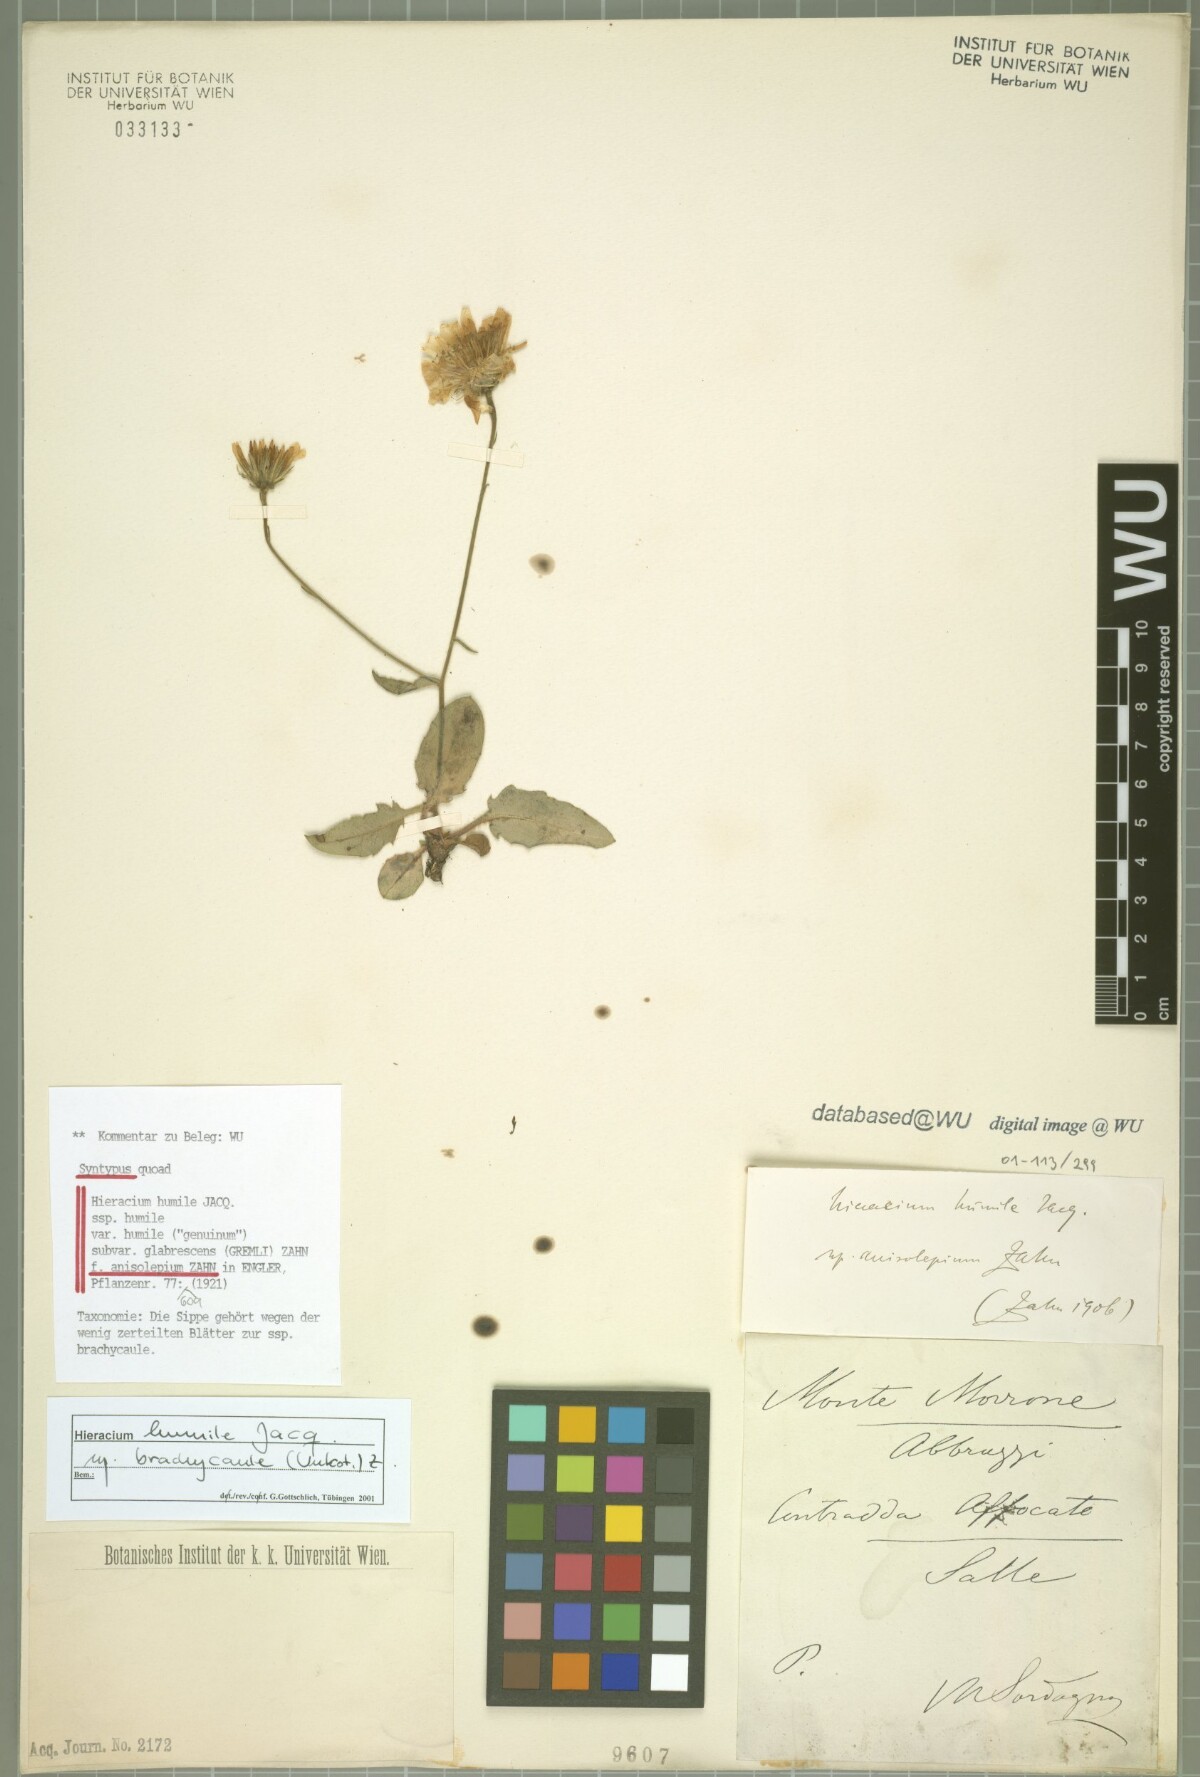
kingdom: Plantae
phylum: Tracheophyta
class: Magnoliopsida
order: Asterales
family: Asteraceae
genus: Hieracium
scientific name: Hieracium humile
